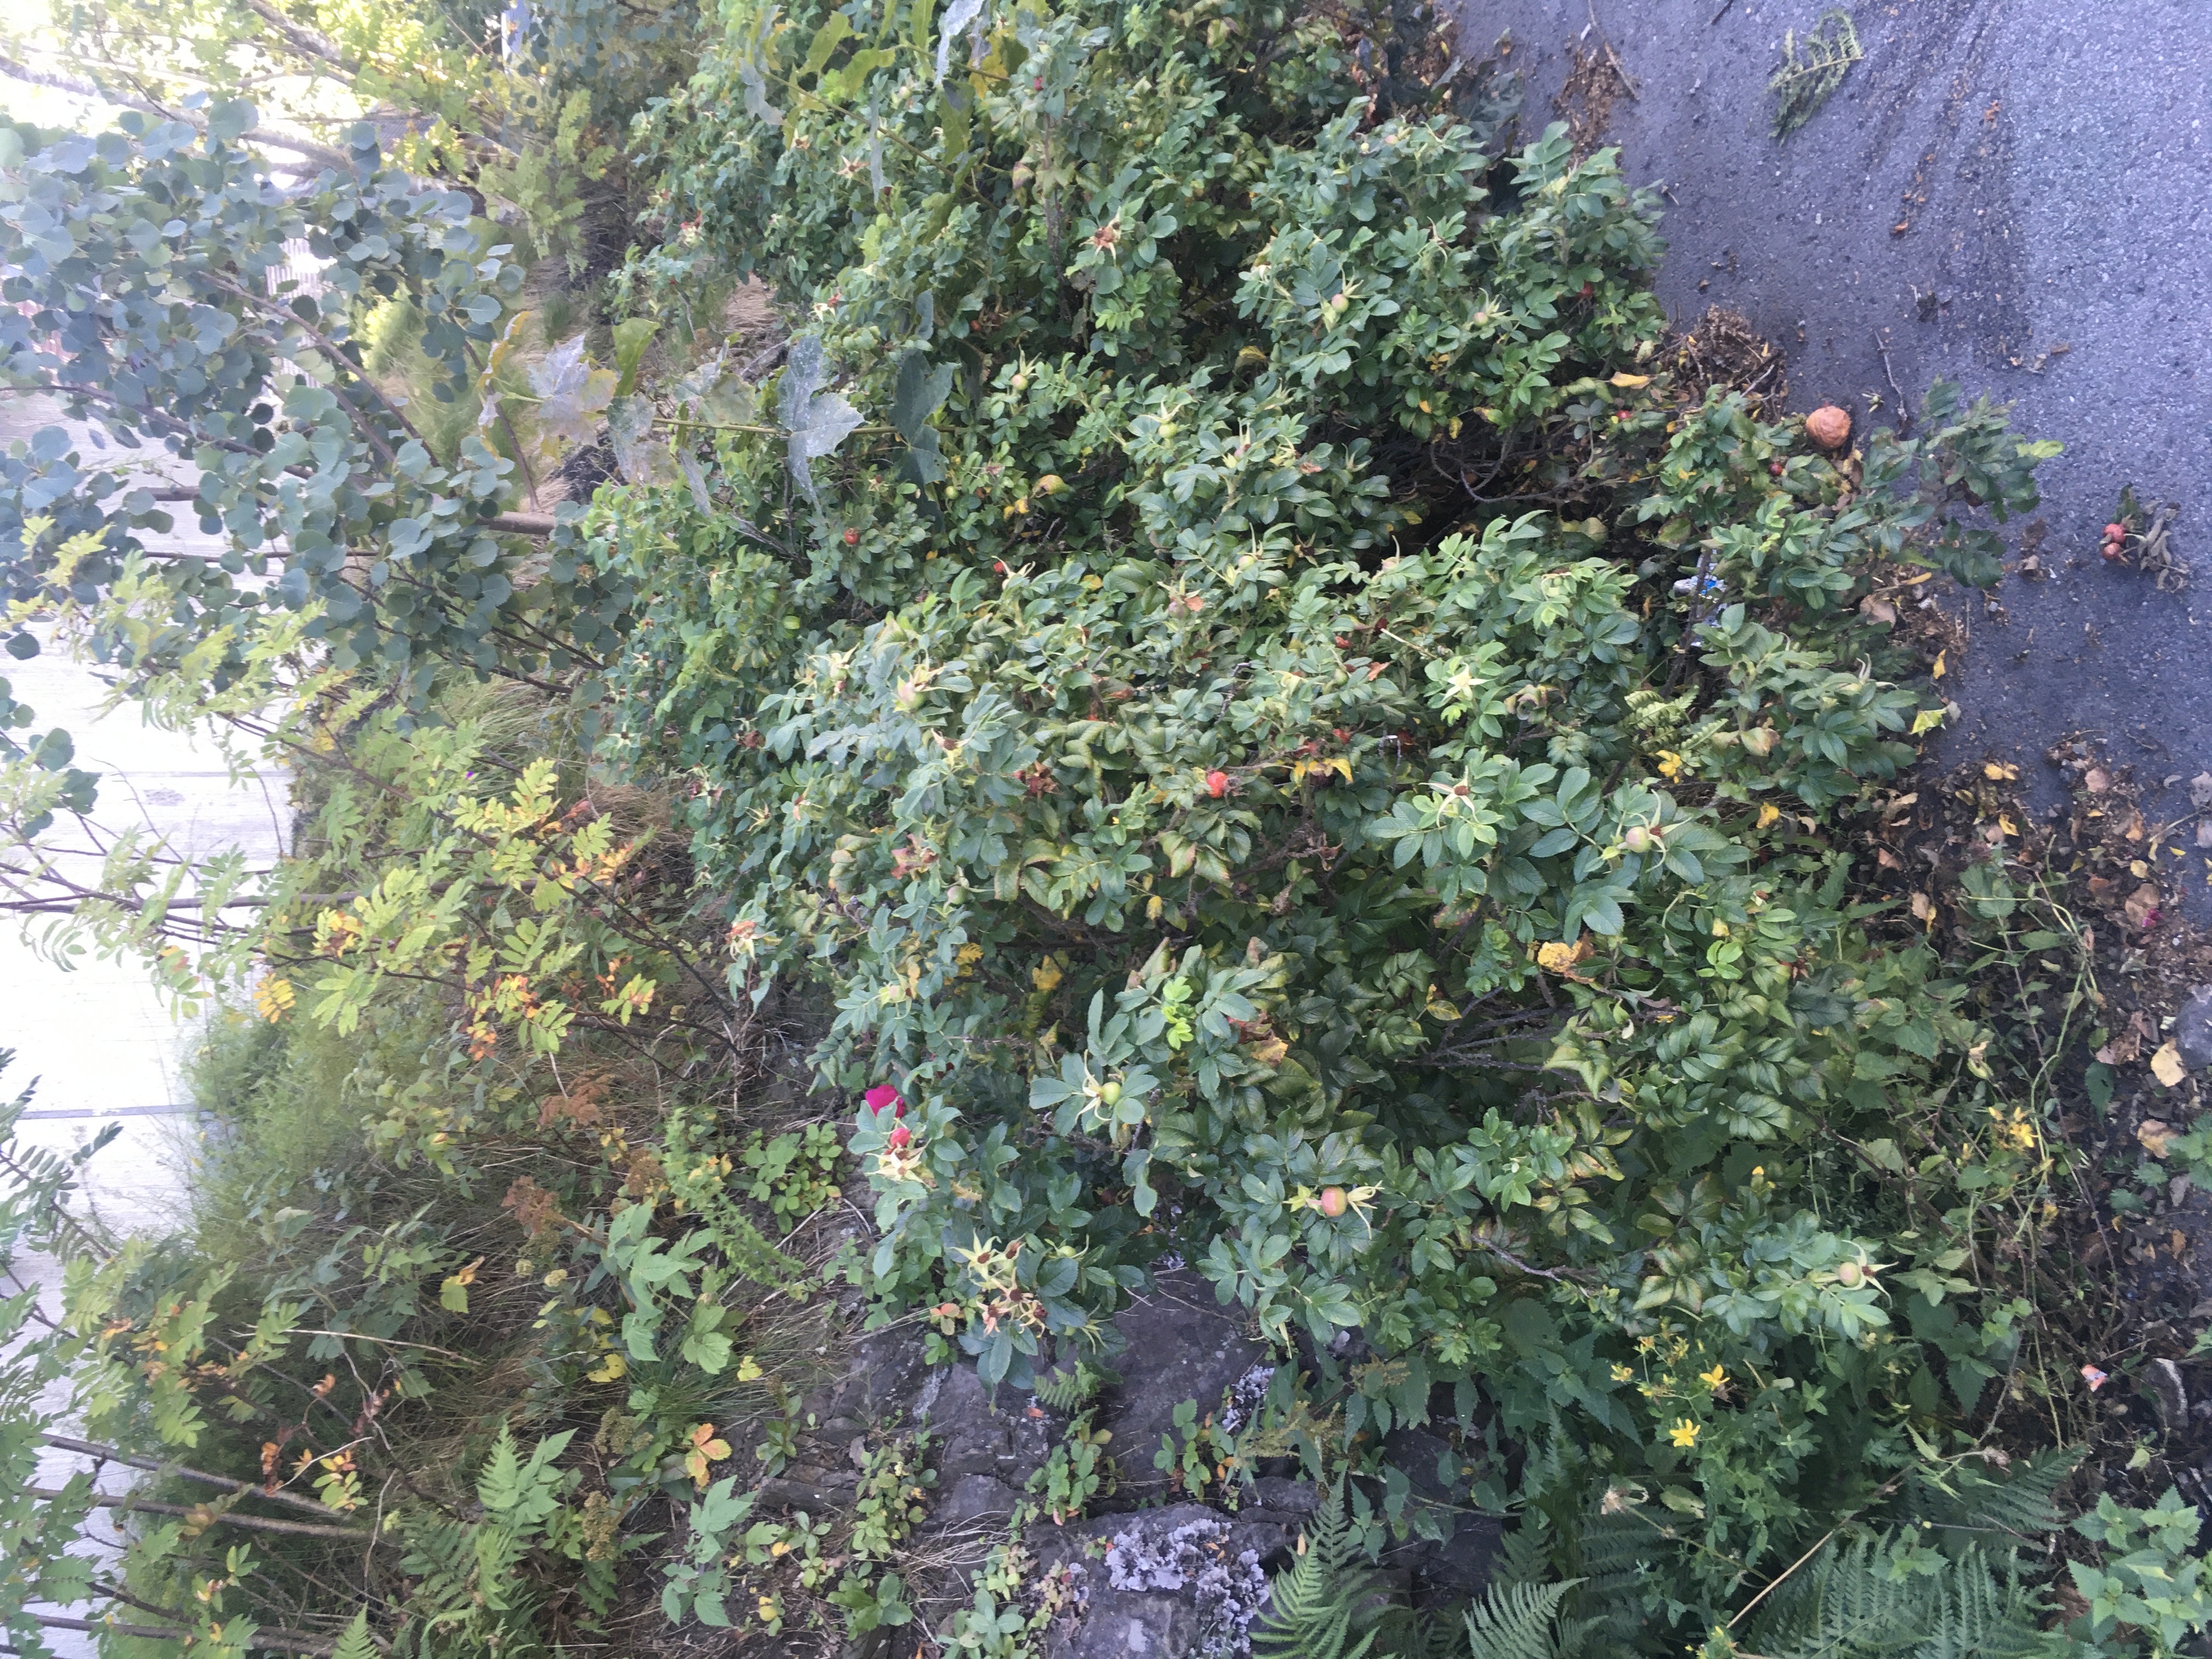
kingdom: Plantae
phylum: Tracheophyta
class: Magnoliopsida
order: Rosales
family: Rosaceae
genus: Rosa
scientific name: Rosa rugosa
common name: rynkerose
